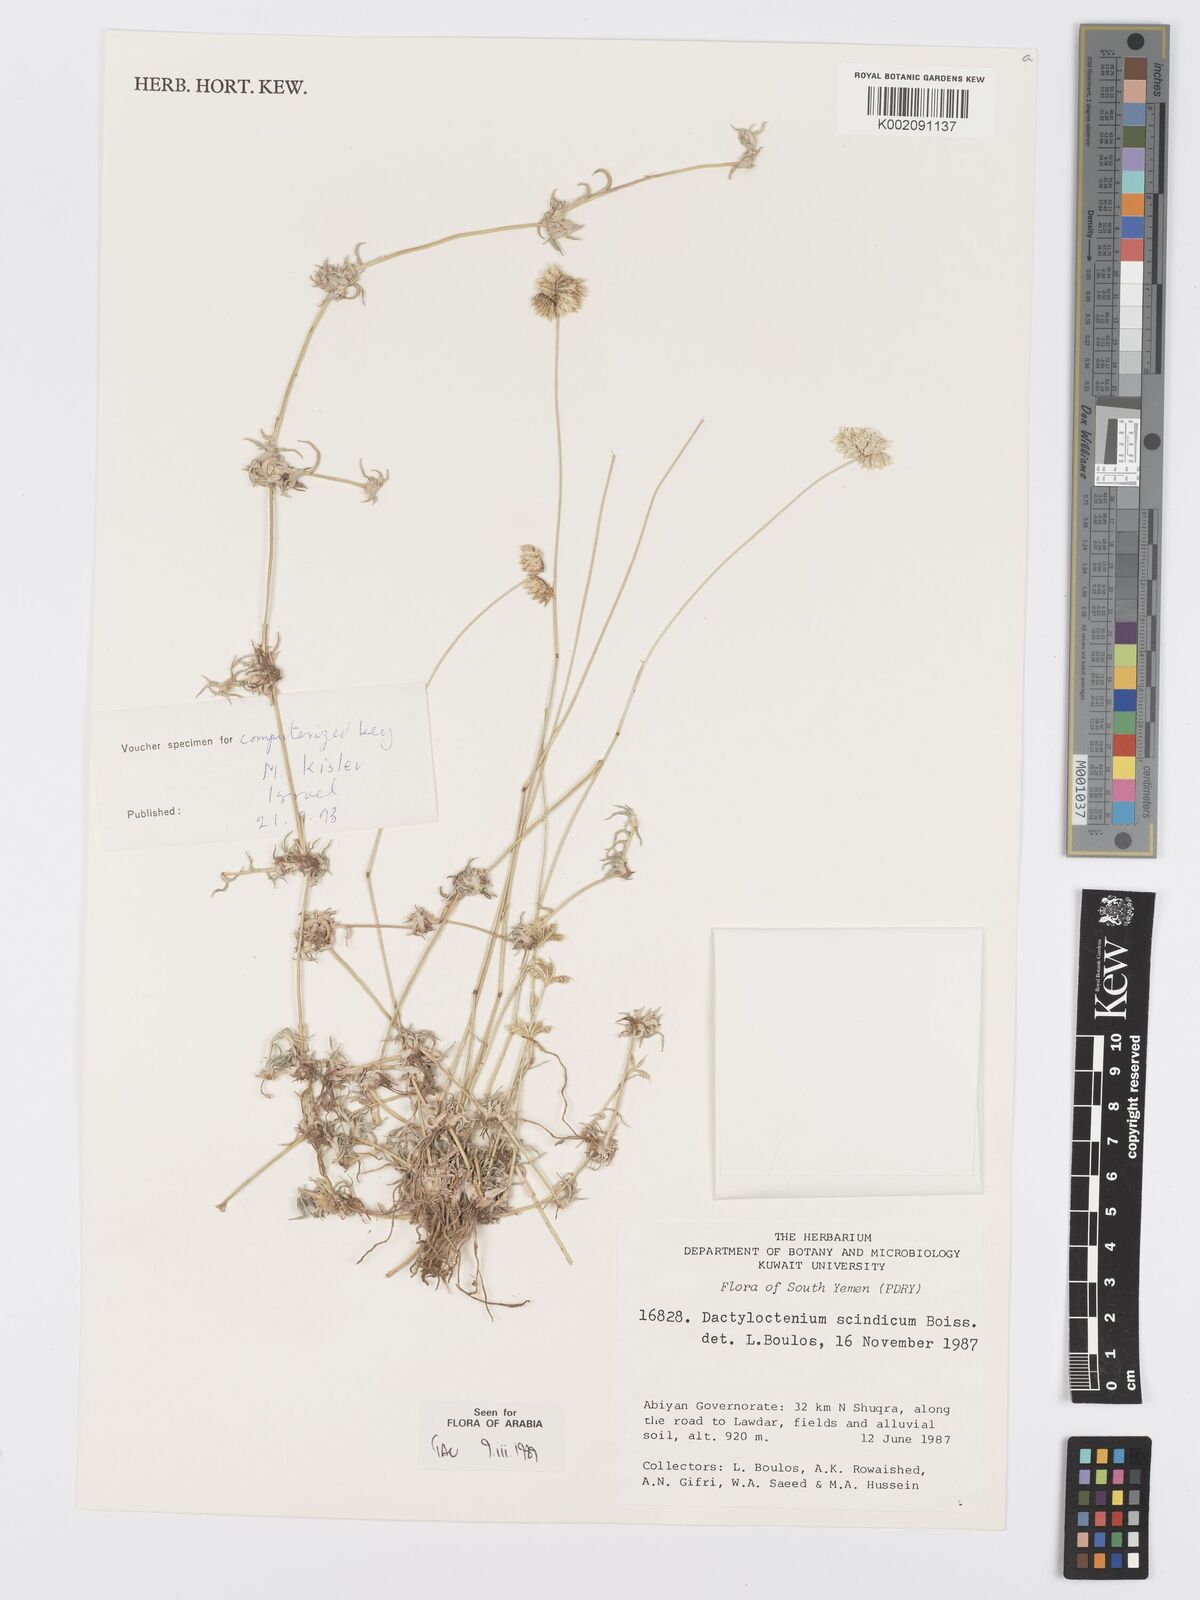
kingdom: Plantae
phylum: Tracheophyta
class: Liliopsida
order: Poales
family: Poaceae
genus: Dactyloctenium
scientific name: Dactyloctenium scindicum
